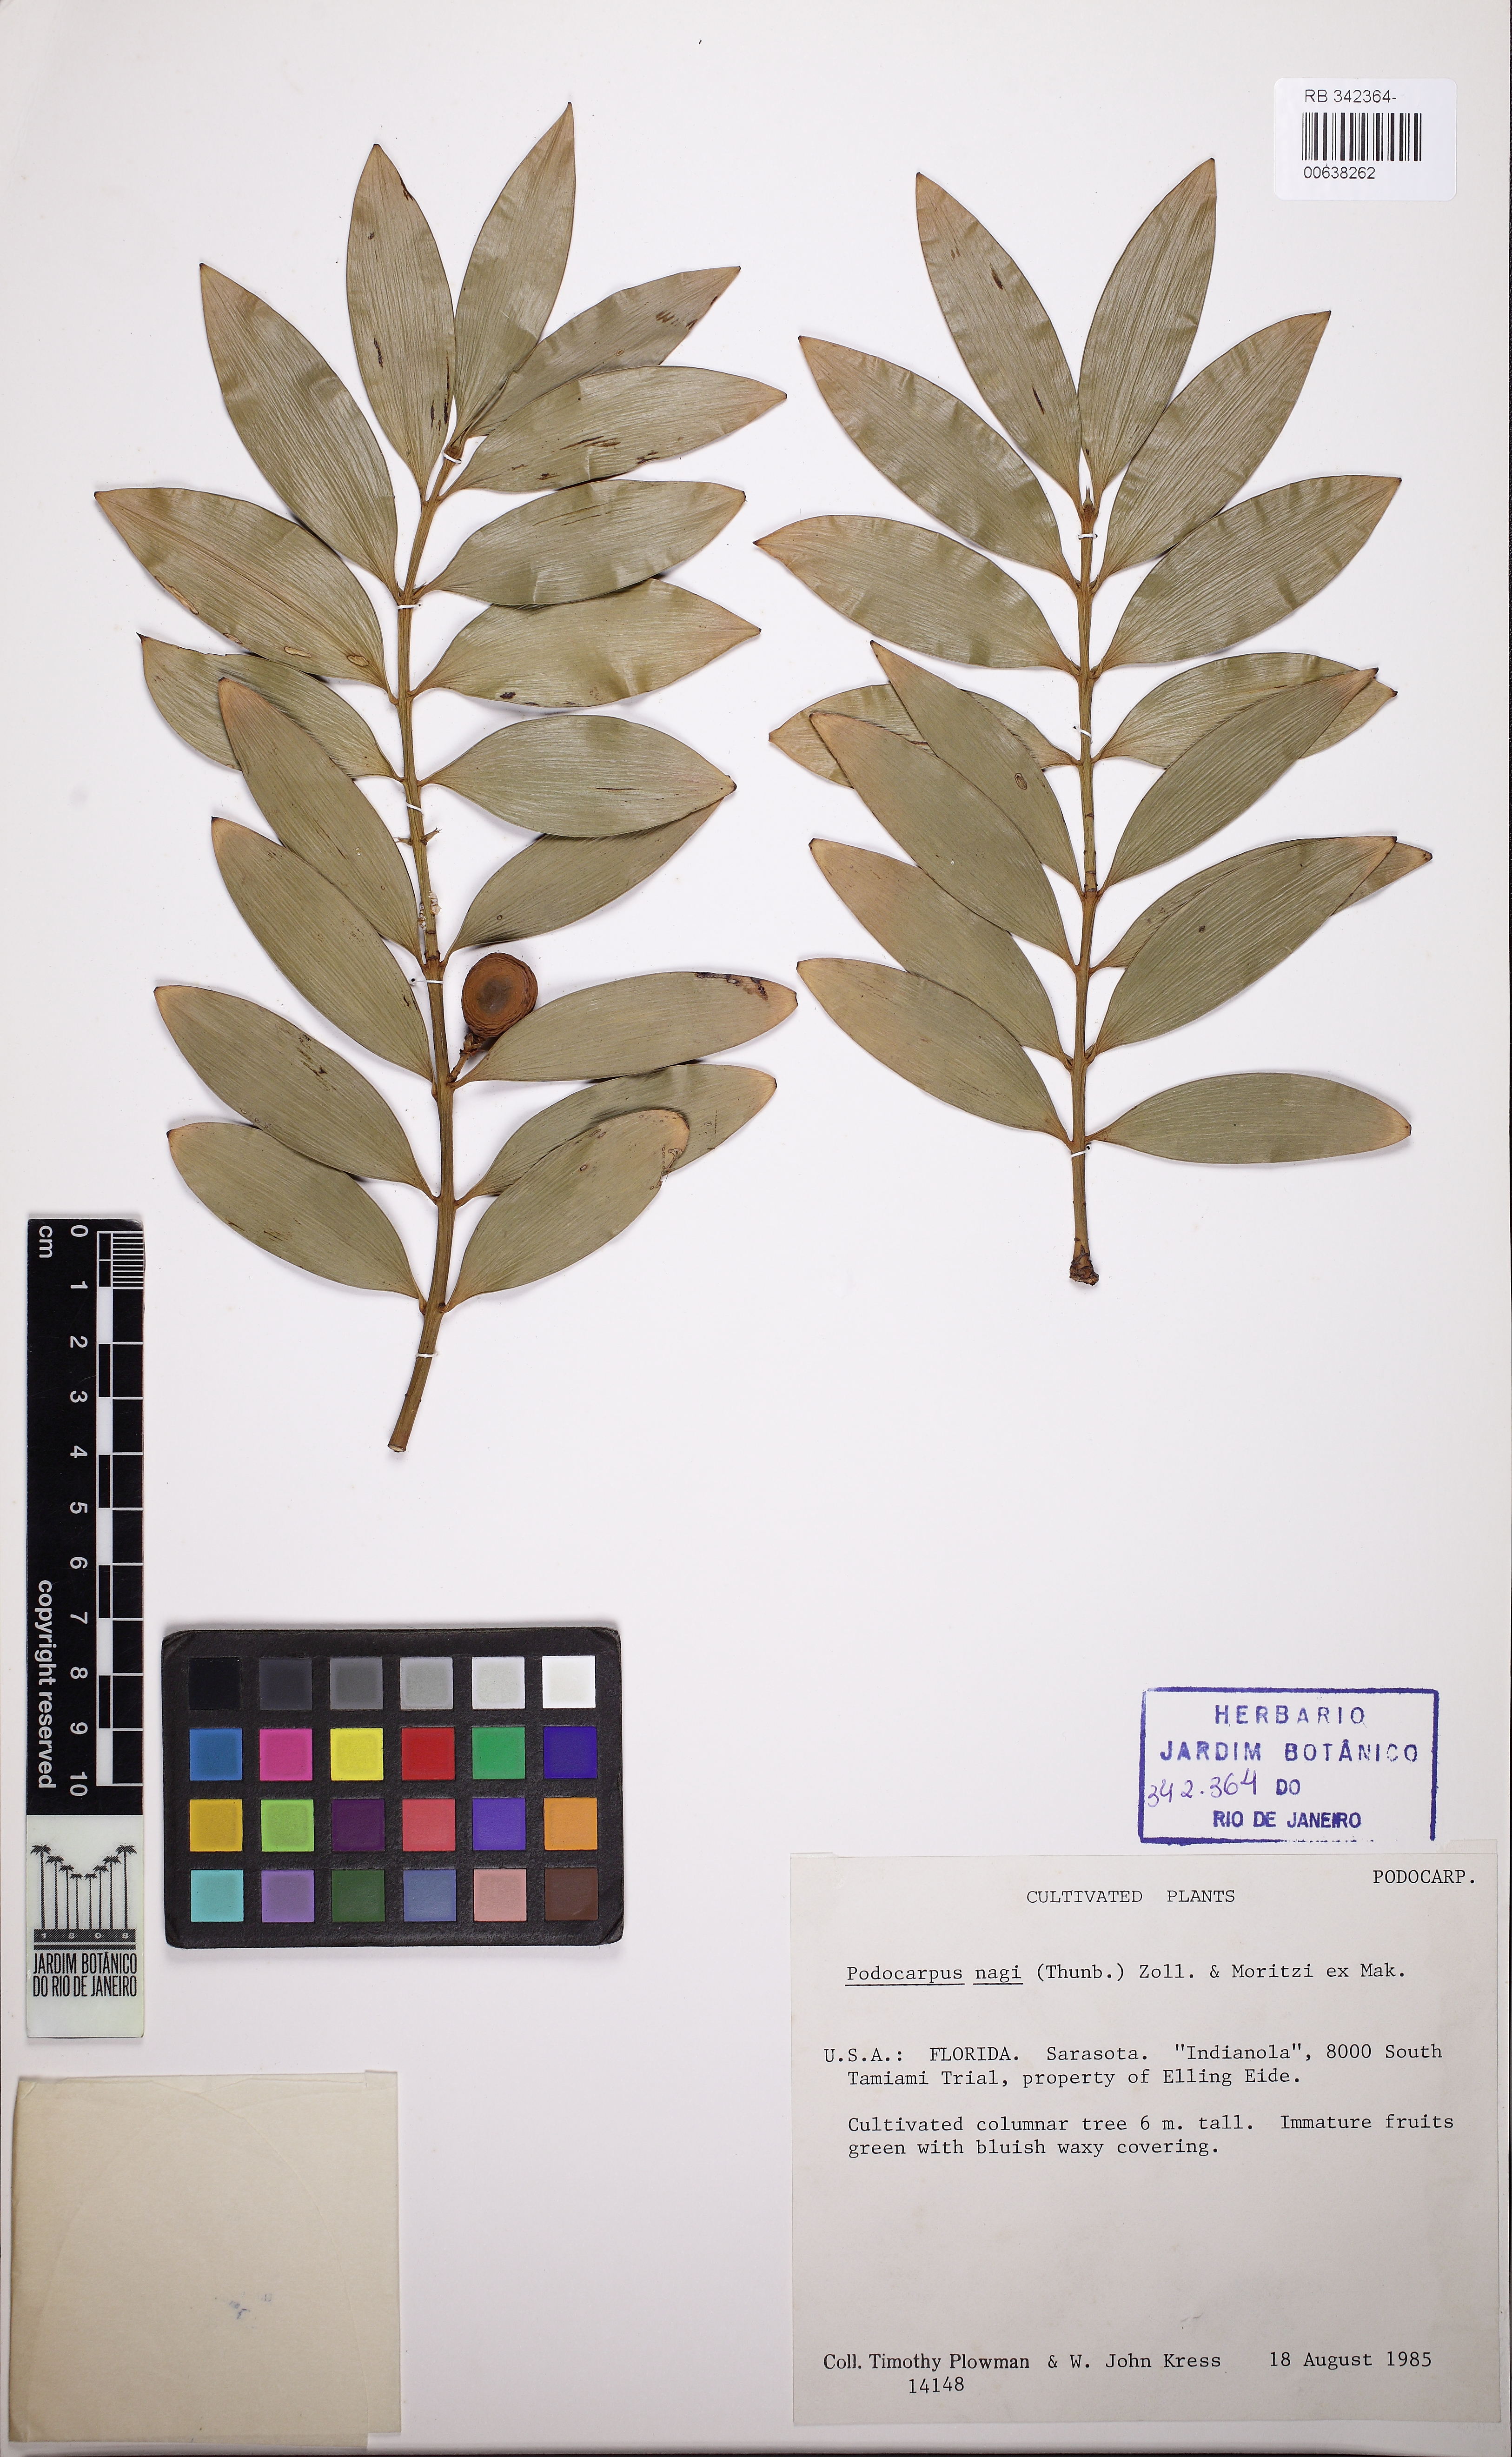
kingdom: Plantae
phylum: Tracheophyta
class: Pinopsida
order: Pinales
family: Podocarpaceae
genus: Nageia
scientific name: Nageia nagi
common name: Kaphal
